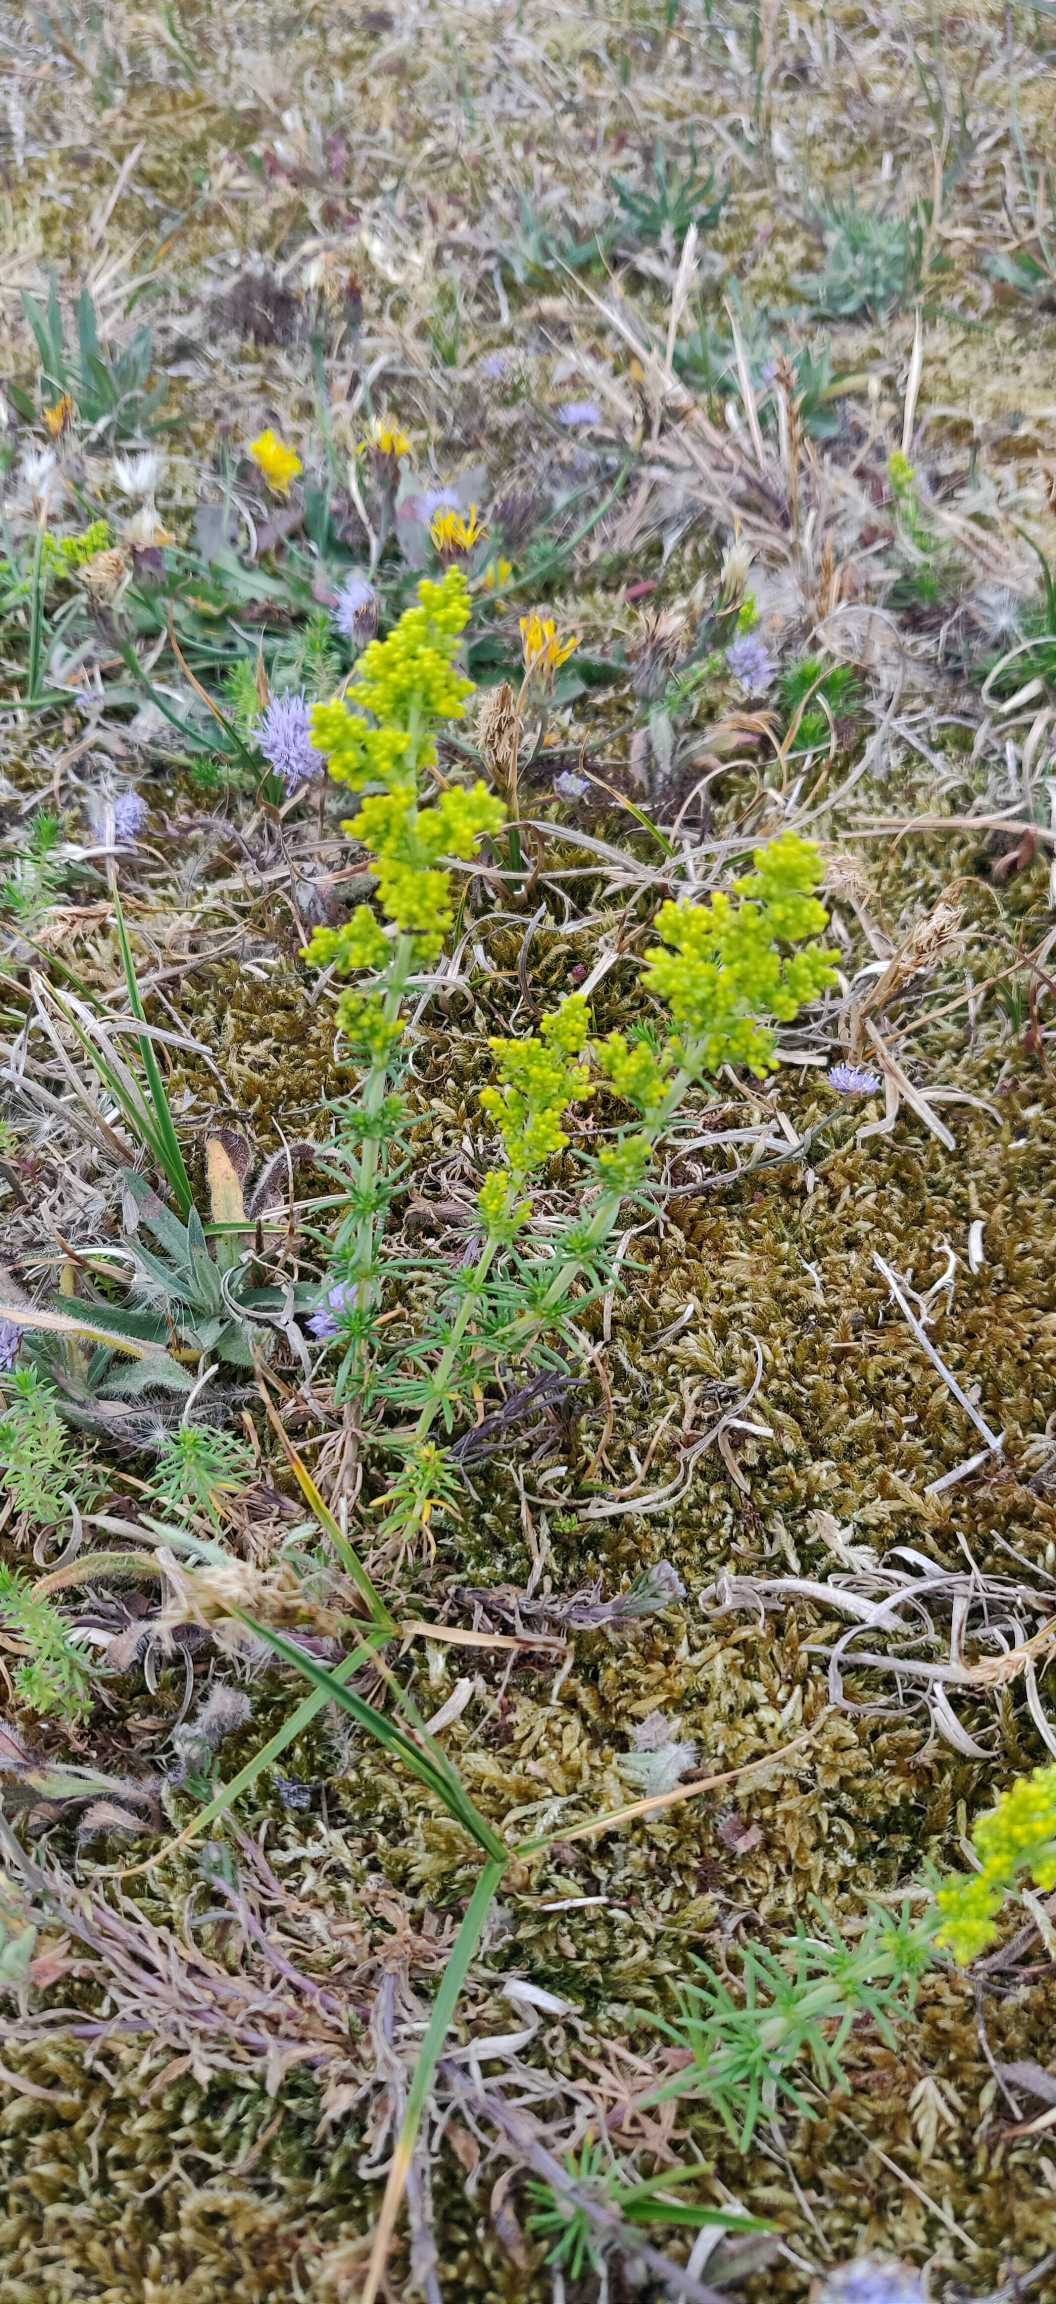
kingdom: Plantae
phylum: Tracheophyta
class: Magnoliopsida
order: Gentianales
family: Rubiaceae
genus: Galium
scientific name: Galium verum
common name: Gul snerre
